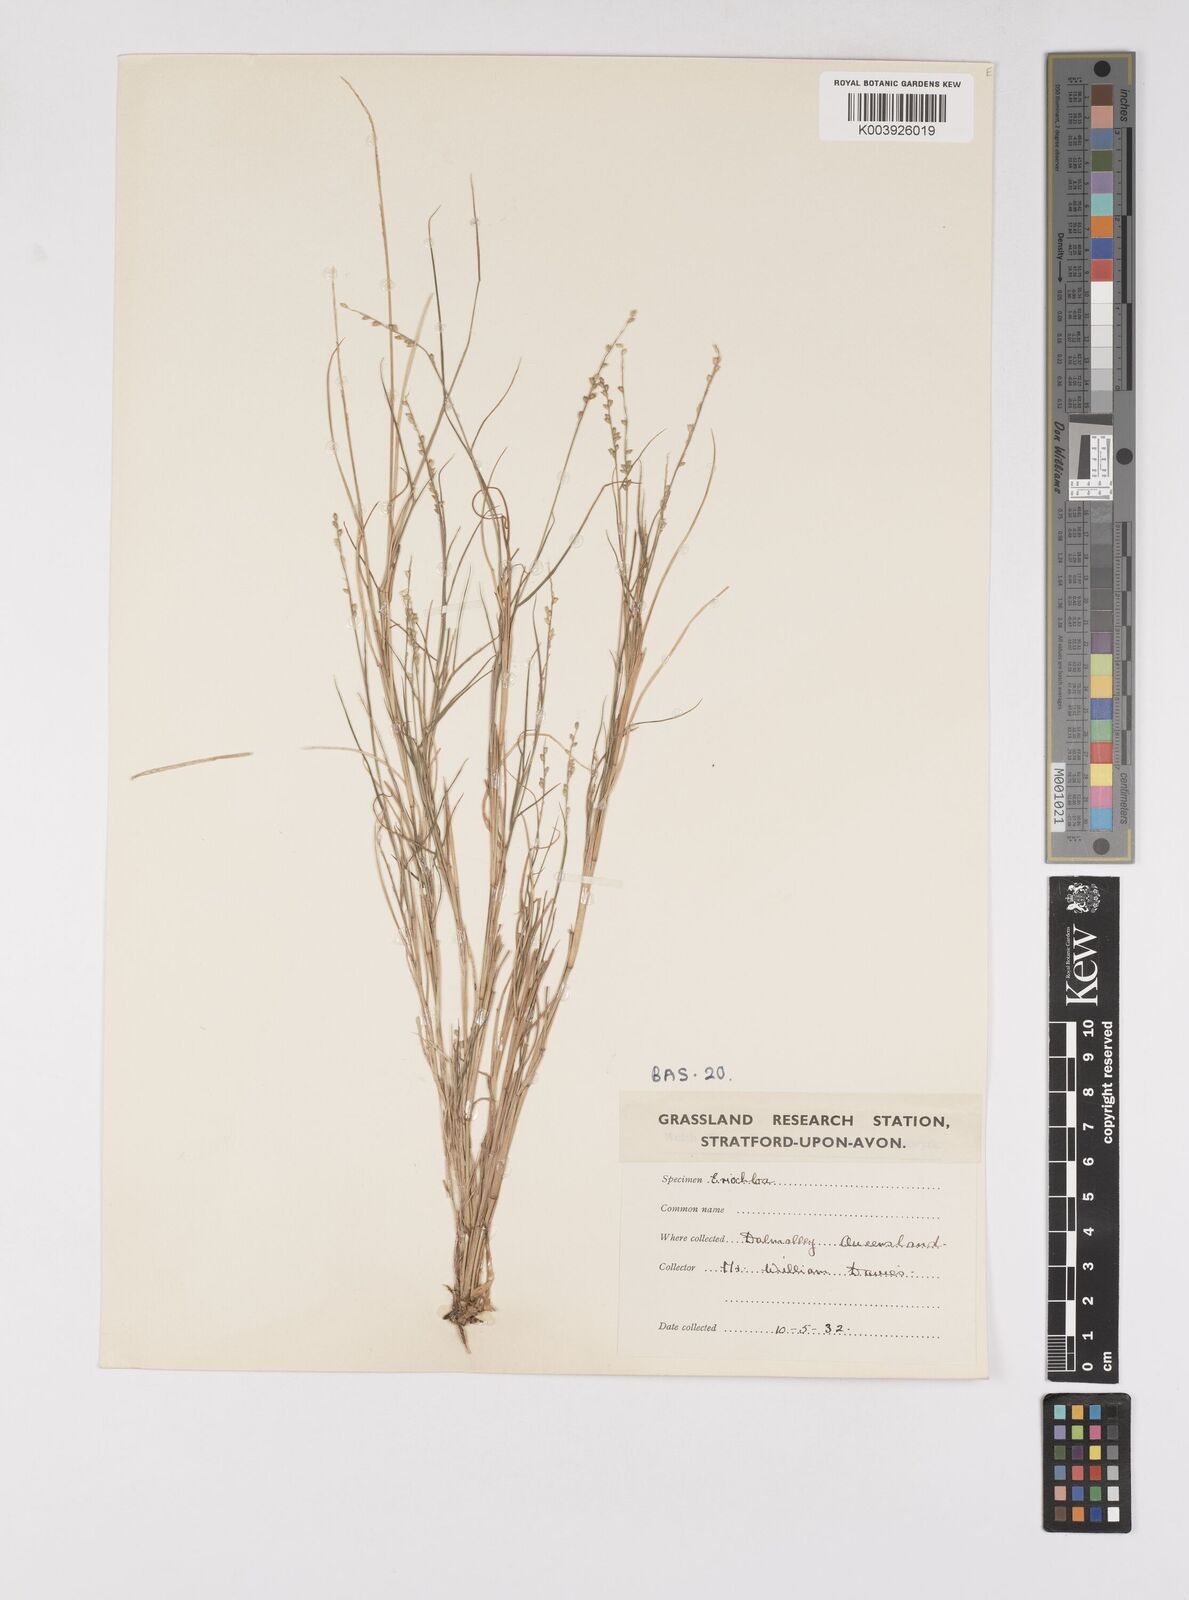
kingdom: Plantae
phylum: Tracheophyta
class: Liliopsida
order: Poales
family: Poaceae
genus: Eriochloa
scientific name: Eriochloa
